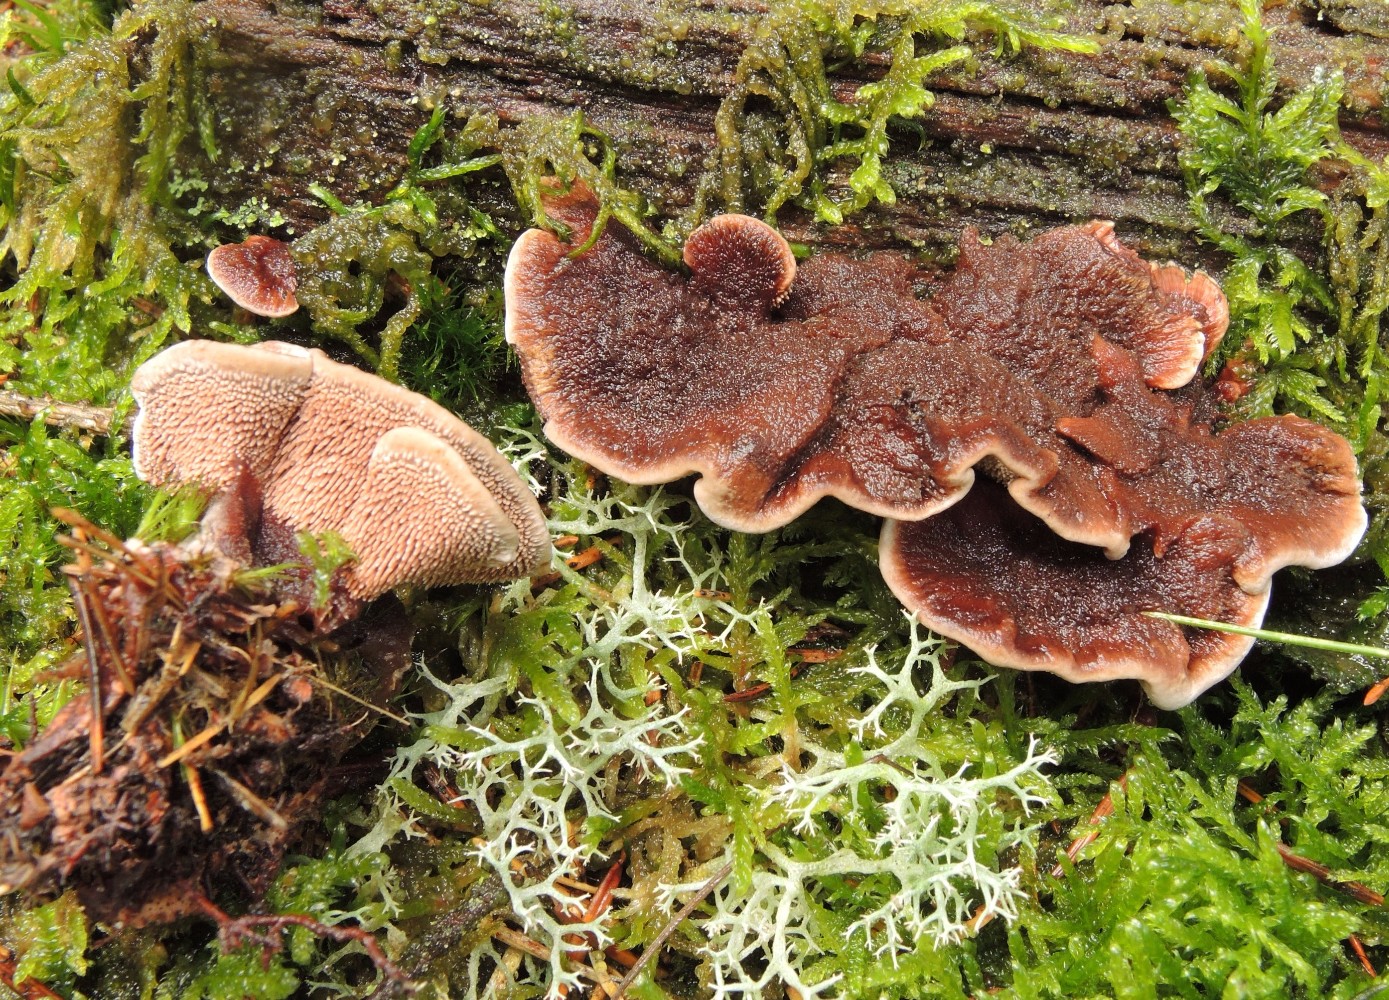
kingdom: Fungi
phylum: Basidiomycota
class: Agaricomycetes
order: Thelephorales
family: Bankeraceae
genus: Hydnellum
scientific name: Hydnellum cumulatum
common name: Rosette tooth
